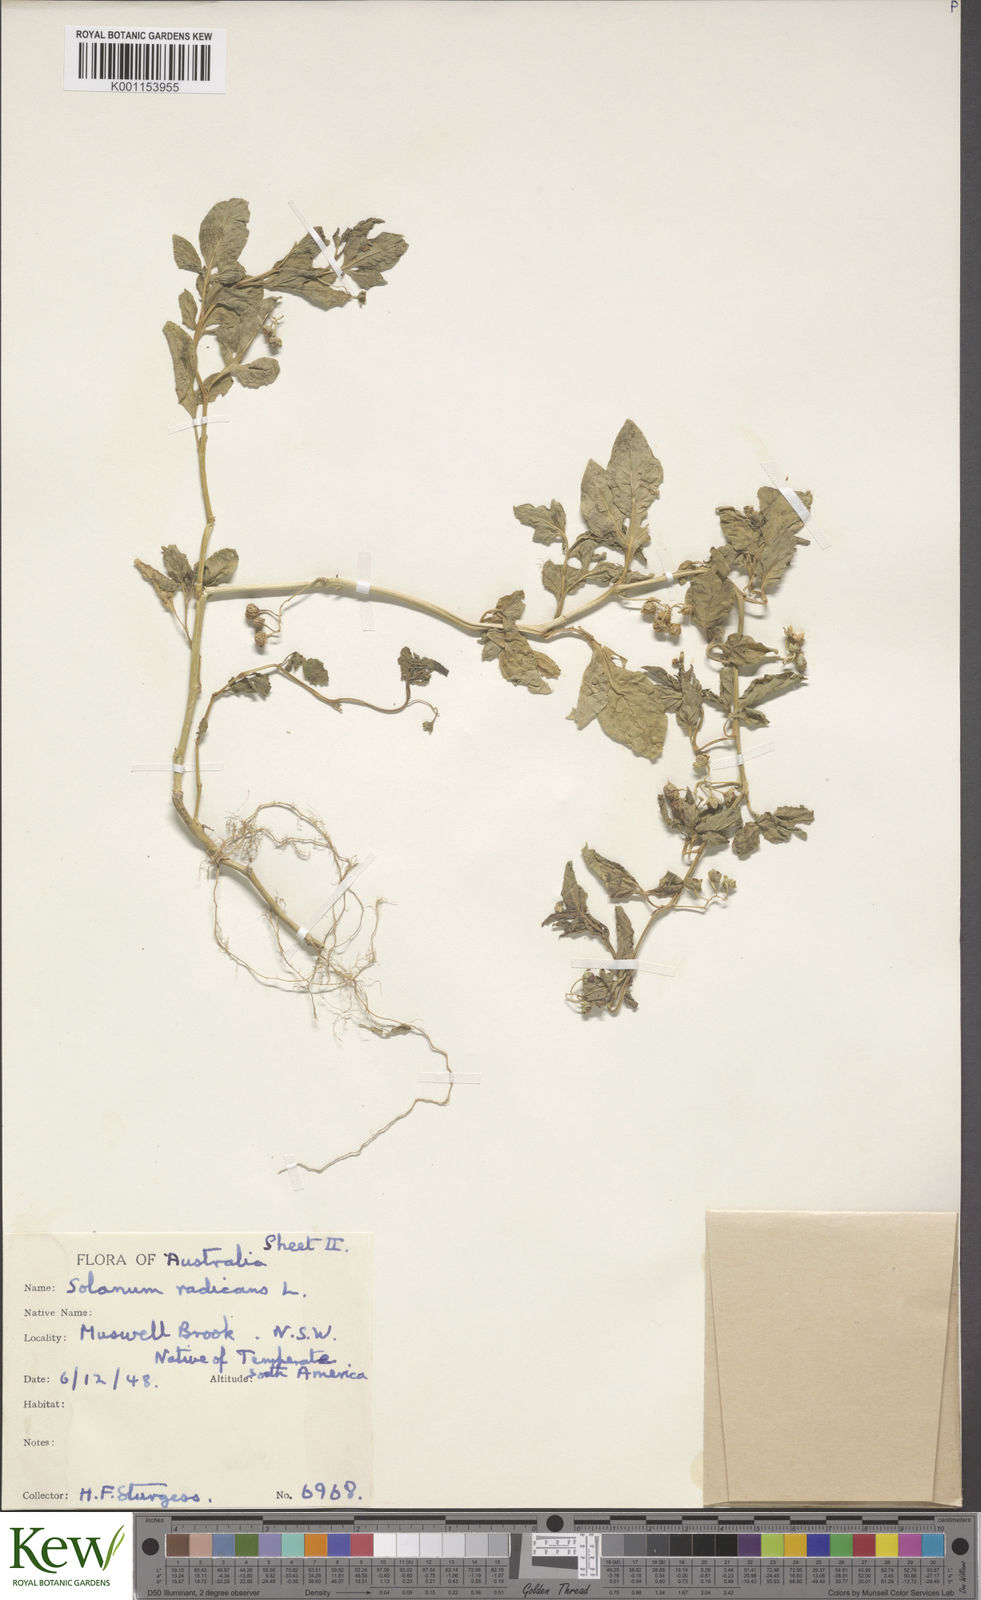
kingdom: Plantae
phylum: Tracheophyta
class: Magnoliopsida
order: Solanales
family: Solanaceae
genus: Solanum
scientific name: Solanum palitans
